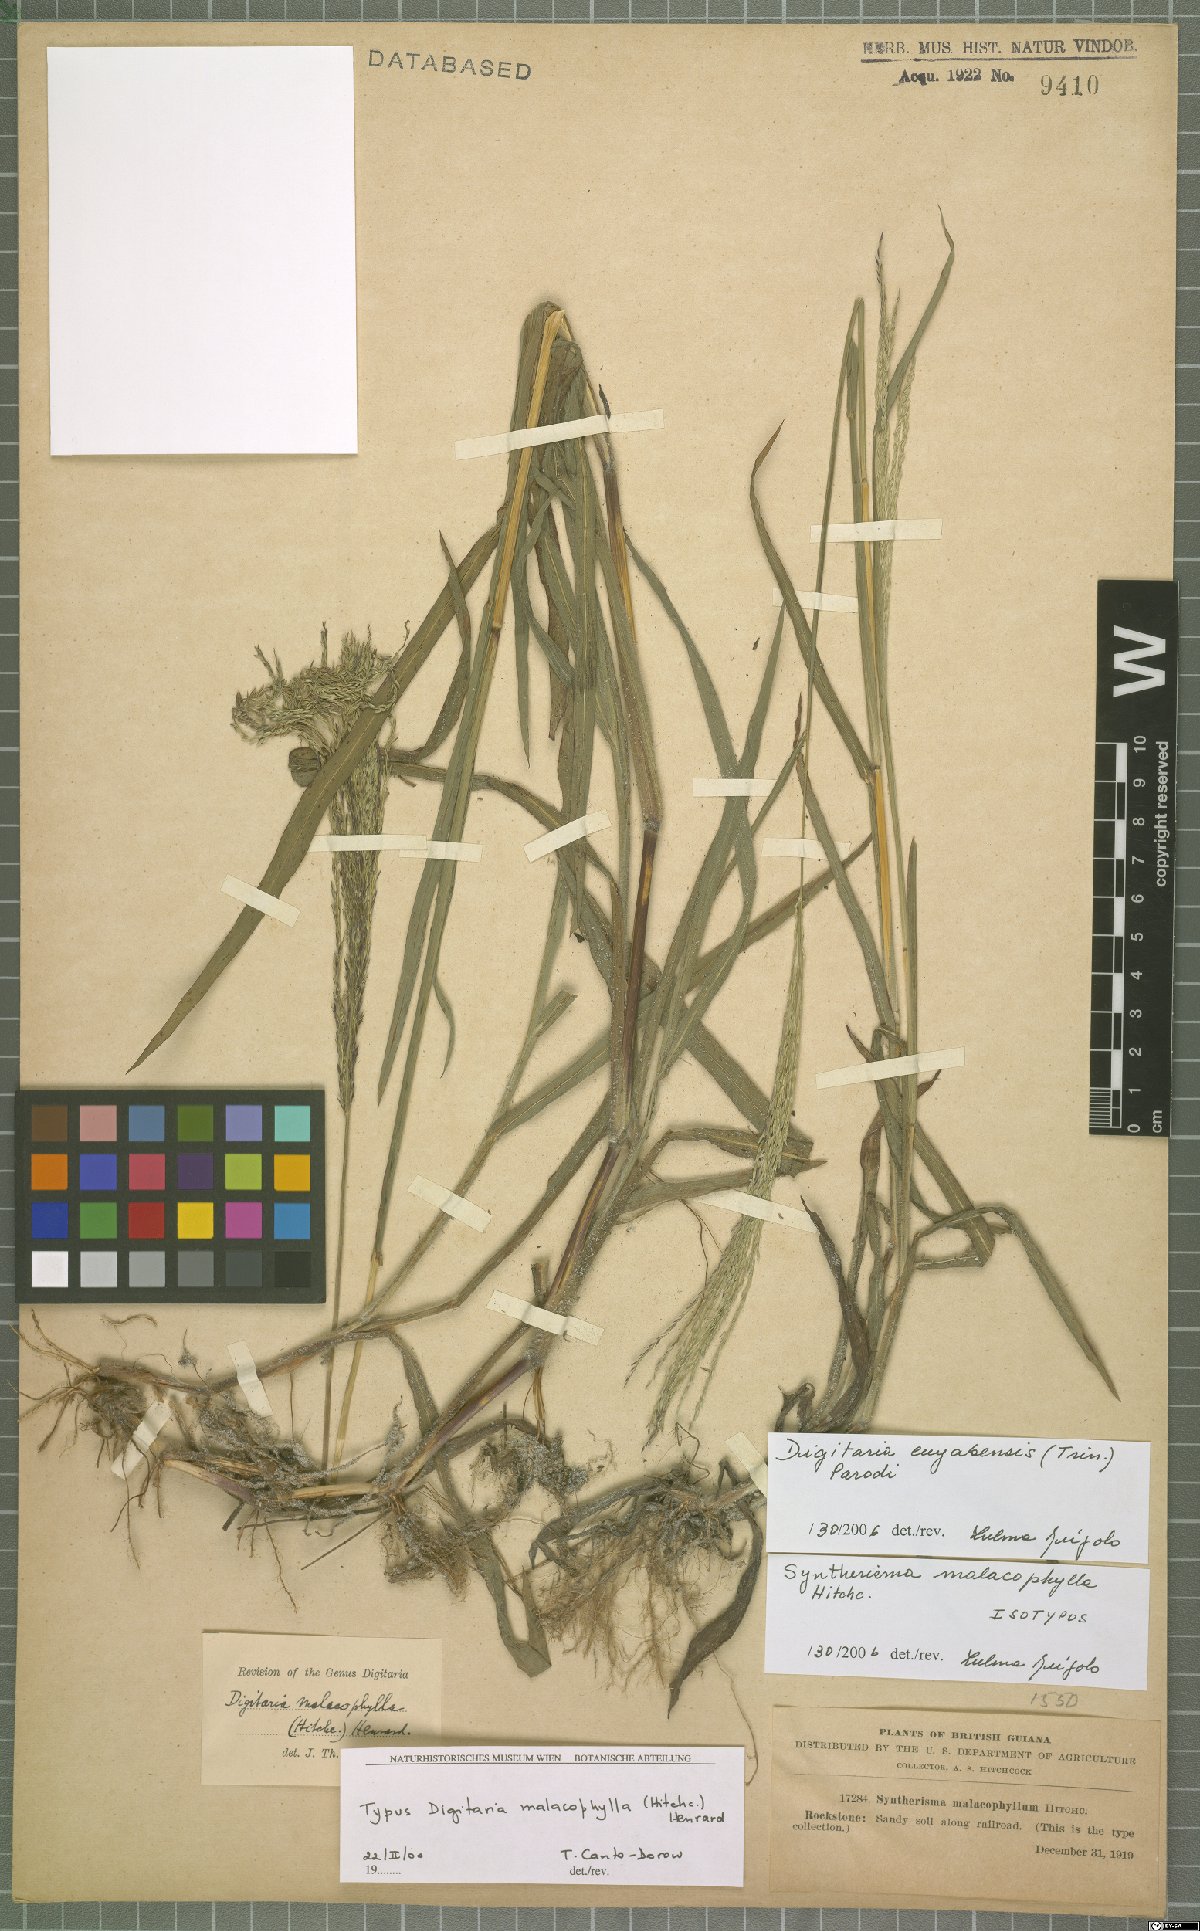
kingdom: Plantae
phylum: Tracheophyta
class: Liliopsida
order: Poales
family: Poaceae
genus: Digitaria
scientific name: Digitaria cuyabensis
